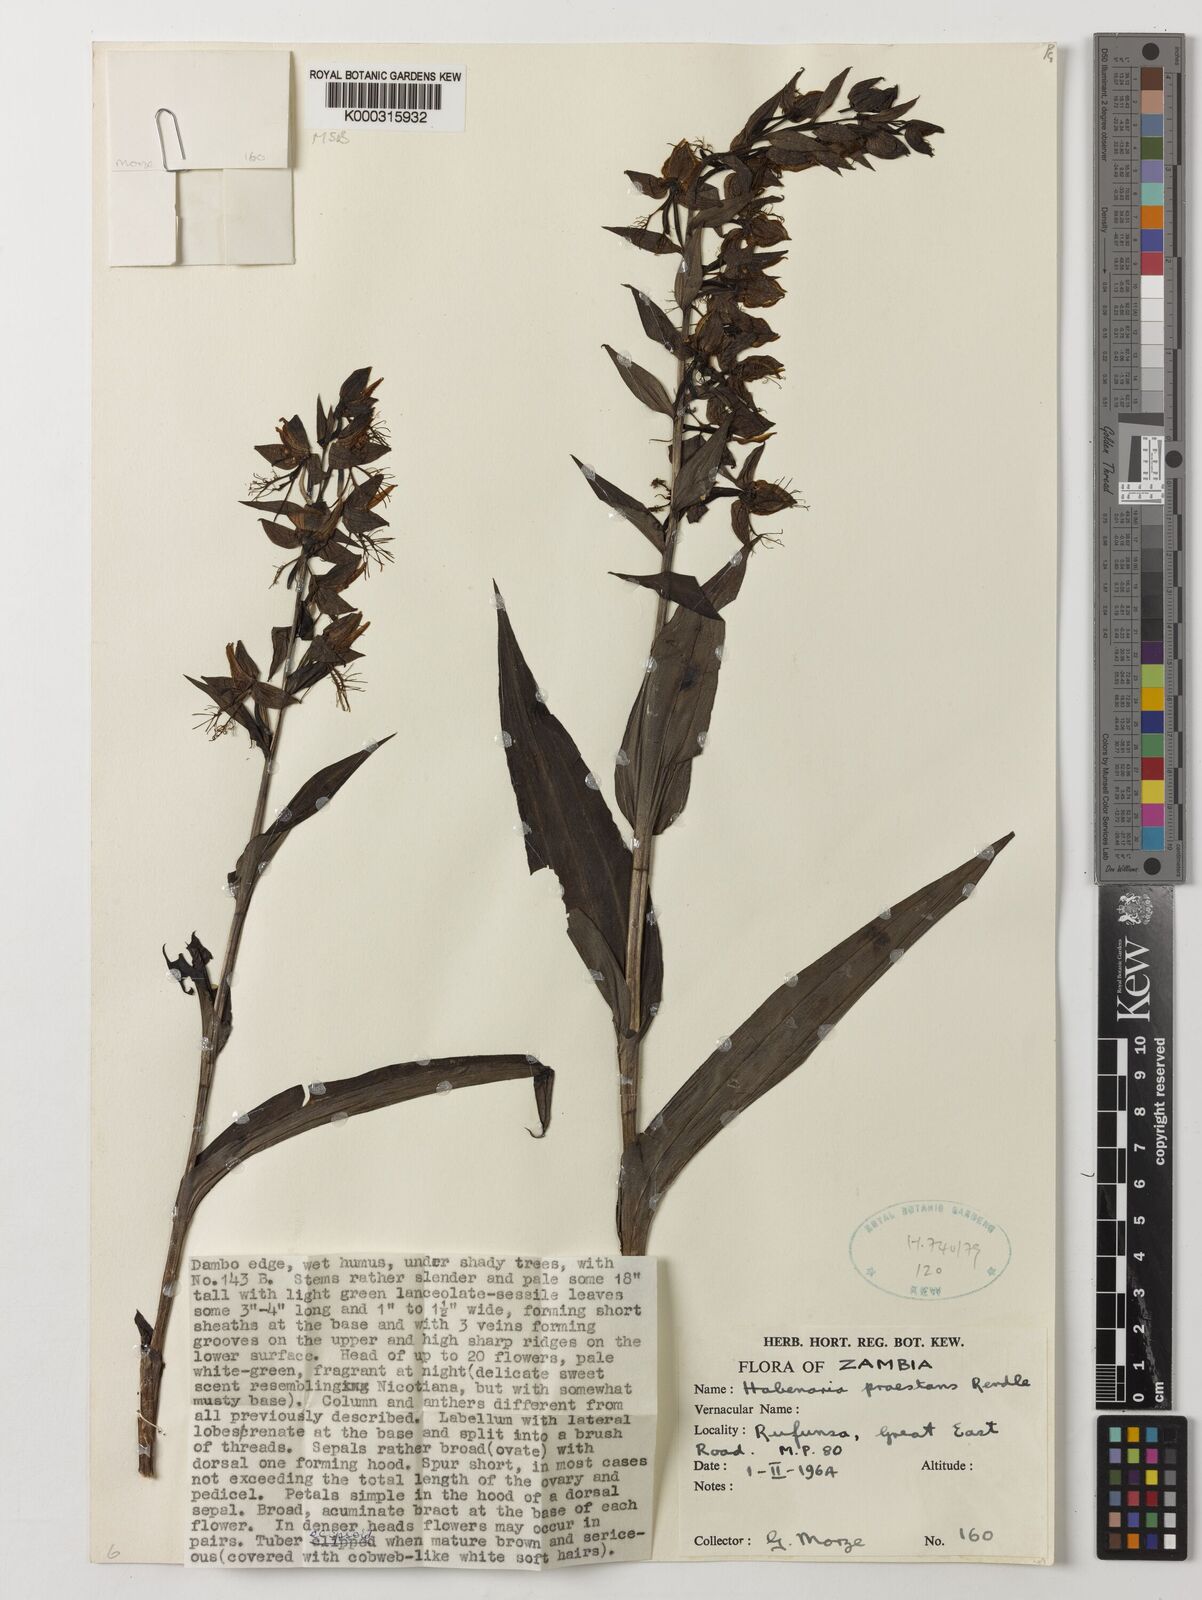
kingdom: Plantae
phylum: Tracheophyta
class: Liliopsida
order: Asparagales
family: Orchidaceae
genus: Habenaria
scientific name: Habenaria praestans
